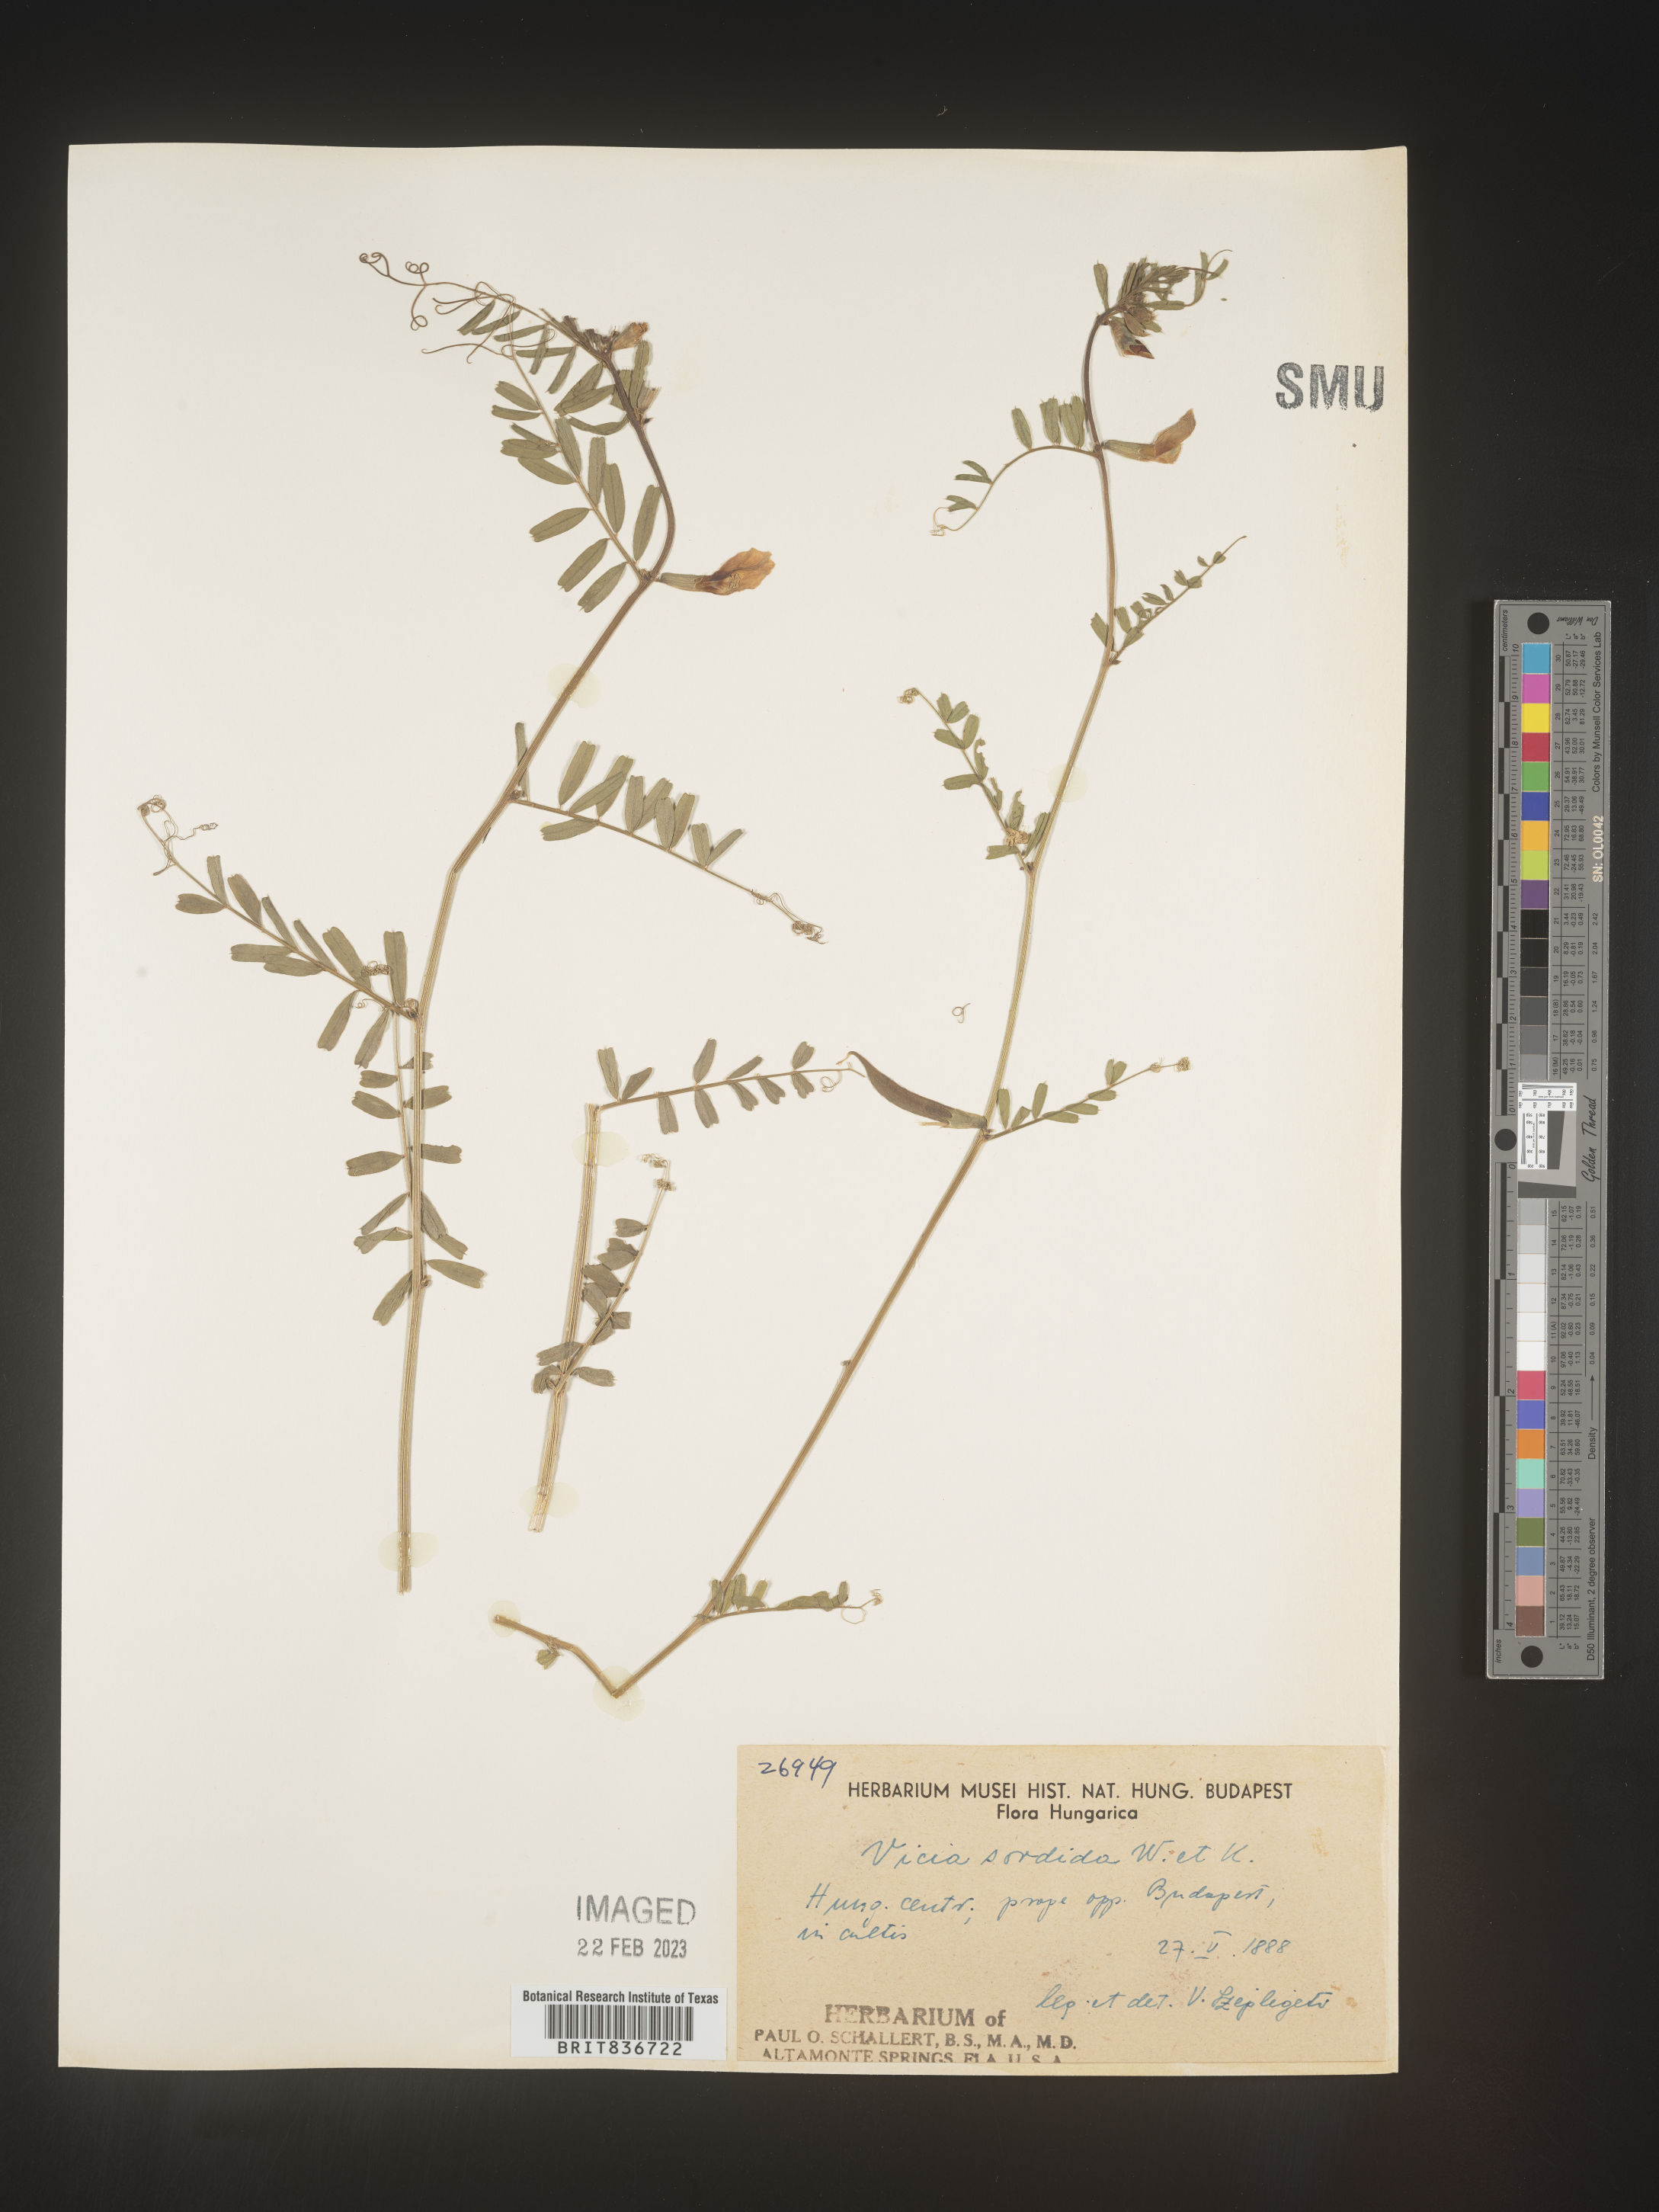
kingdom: Plantae
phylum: Tracheophyta
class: Magnoliopsida
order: Fabales
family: Fabaceae
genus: Vicia
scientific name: Vicia
